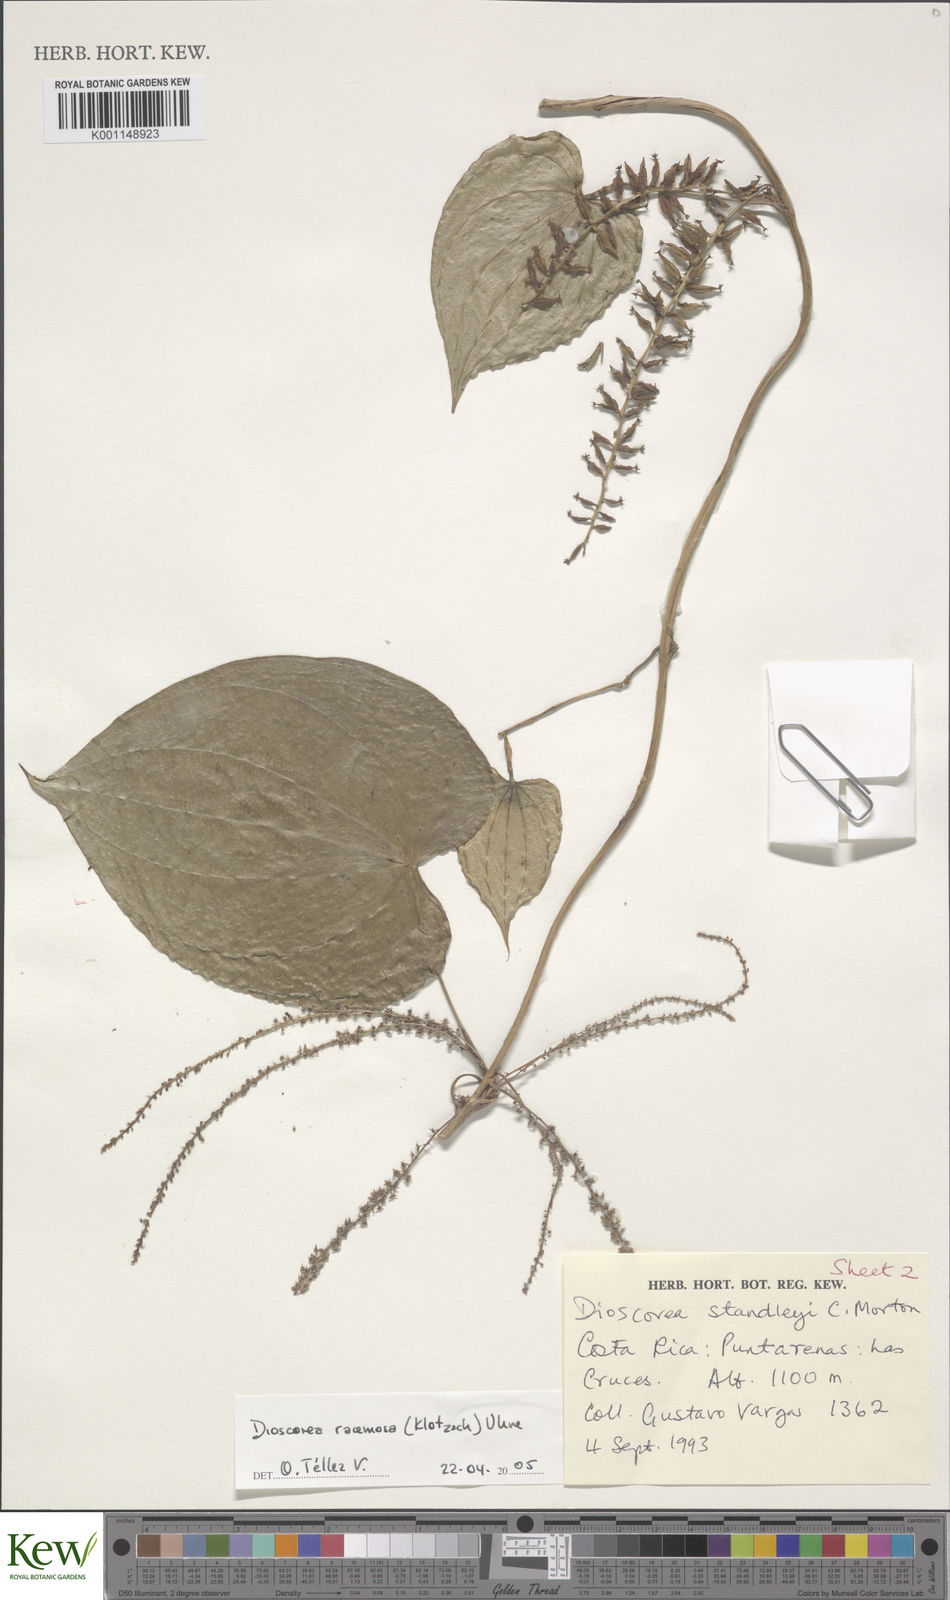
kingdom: Plantae
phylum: Tracheophyta
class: Liliopsida
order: Dioscoreales
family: Dioscoreaceae
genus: Dioscorea
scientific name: Dioscorea
